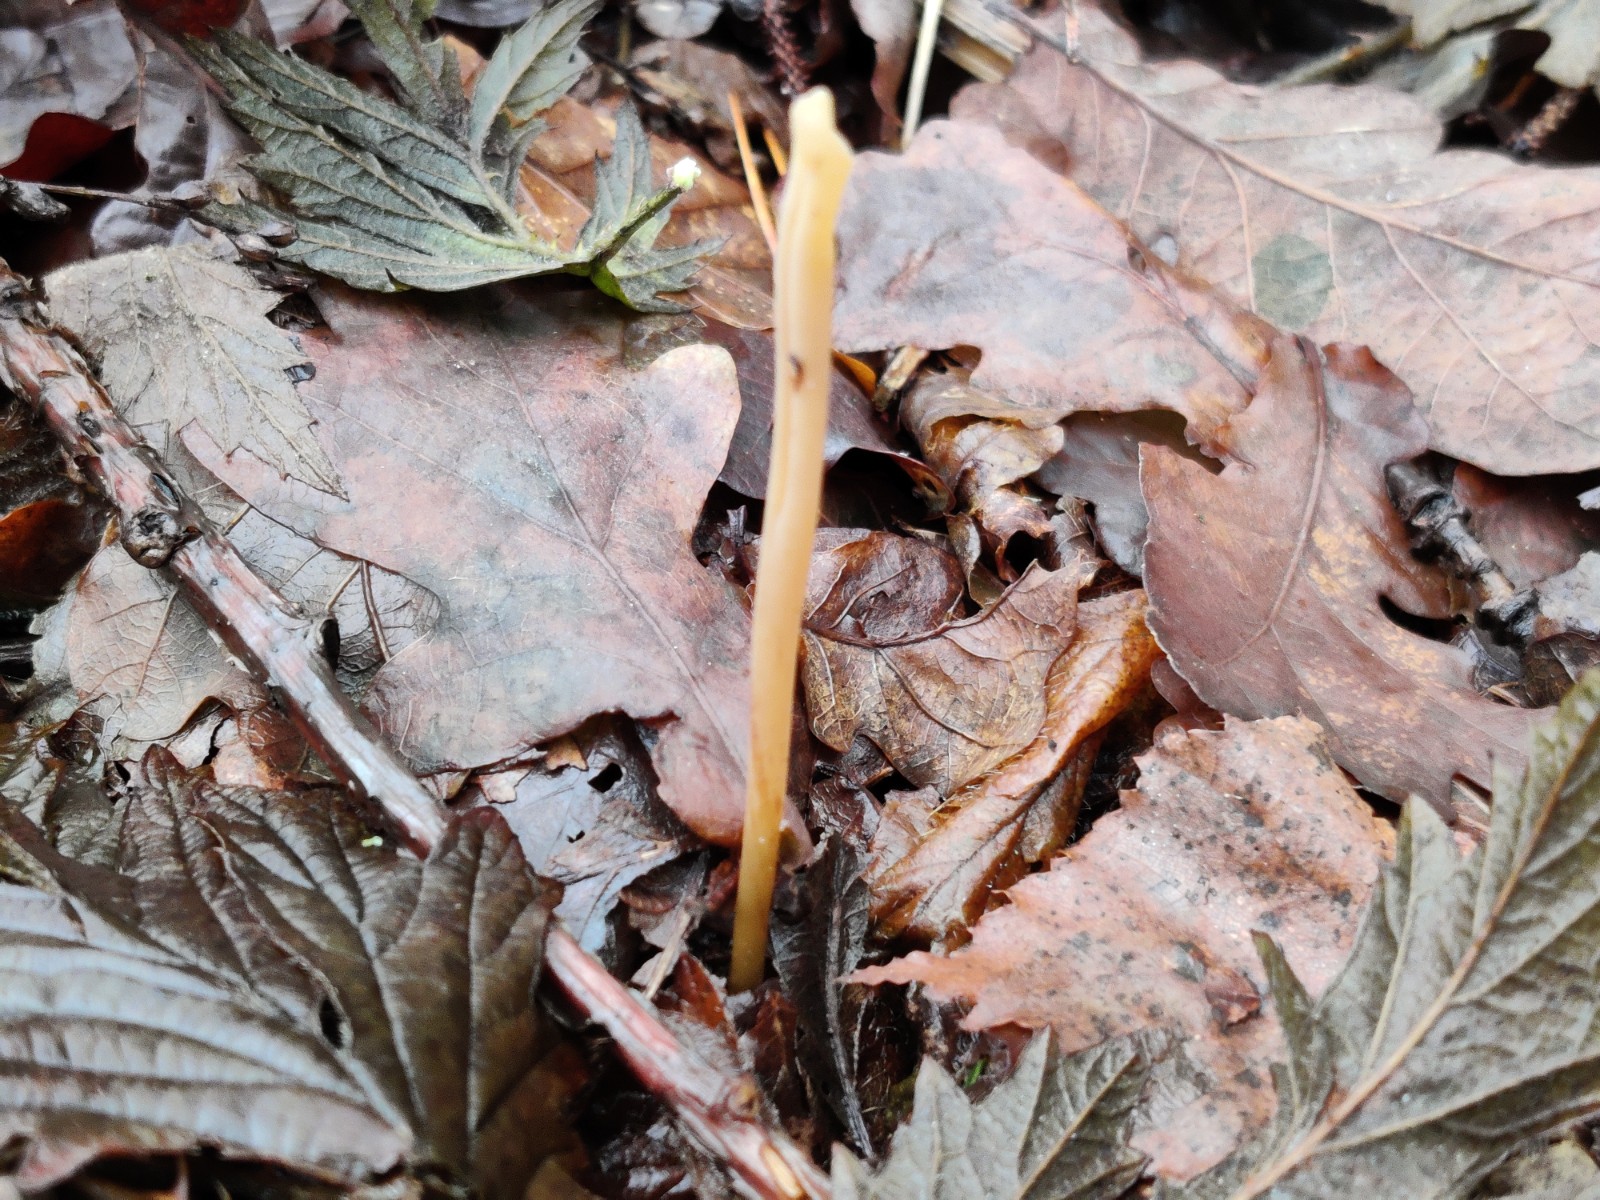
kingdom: Fungi
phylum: Basidiomycota
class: Agaricomycetes
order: Agaricales
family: Typhulaceae
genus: Typhula
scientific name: Typhula fistulosa
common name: pibet rørkølle
